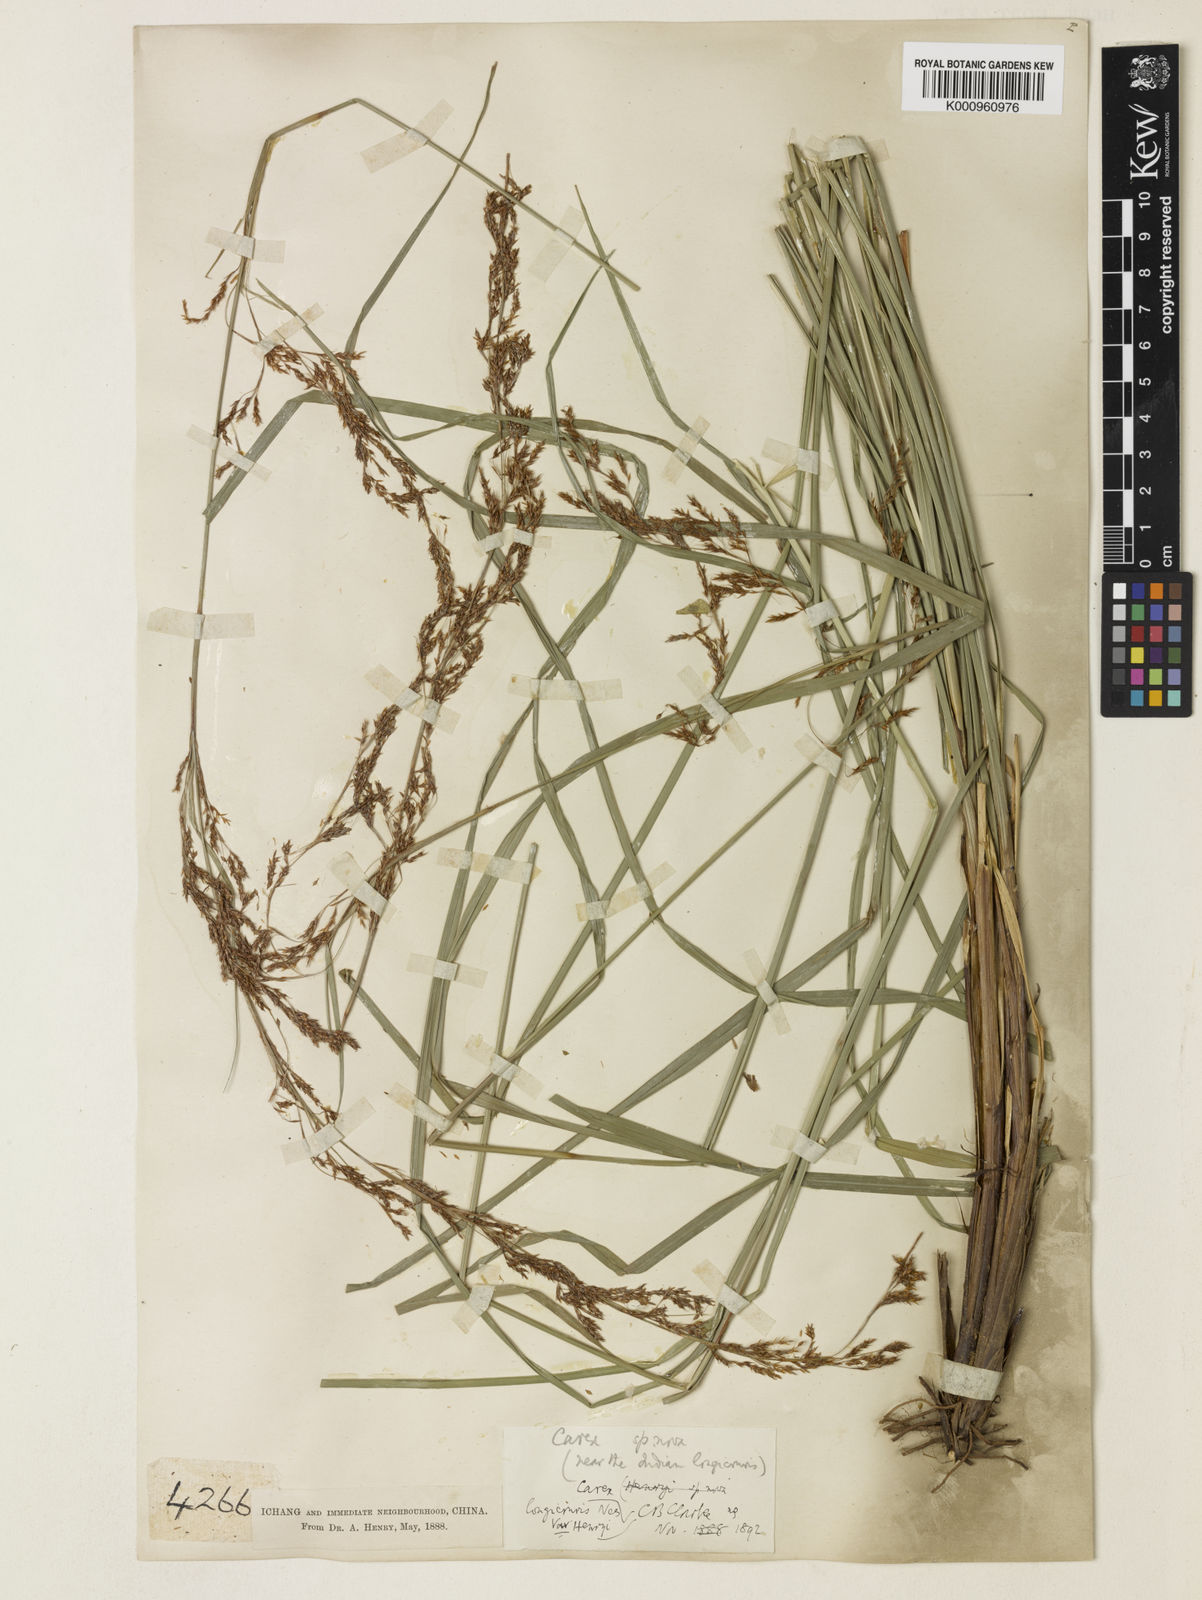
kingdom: Plantae
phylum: Tracheophyta
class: Liliopsida
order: Poales
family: Cyperaceae
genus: Carex
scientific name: Carex longicruris
